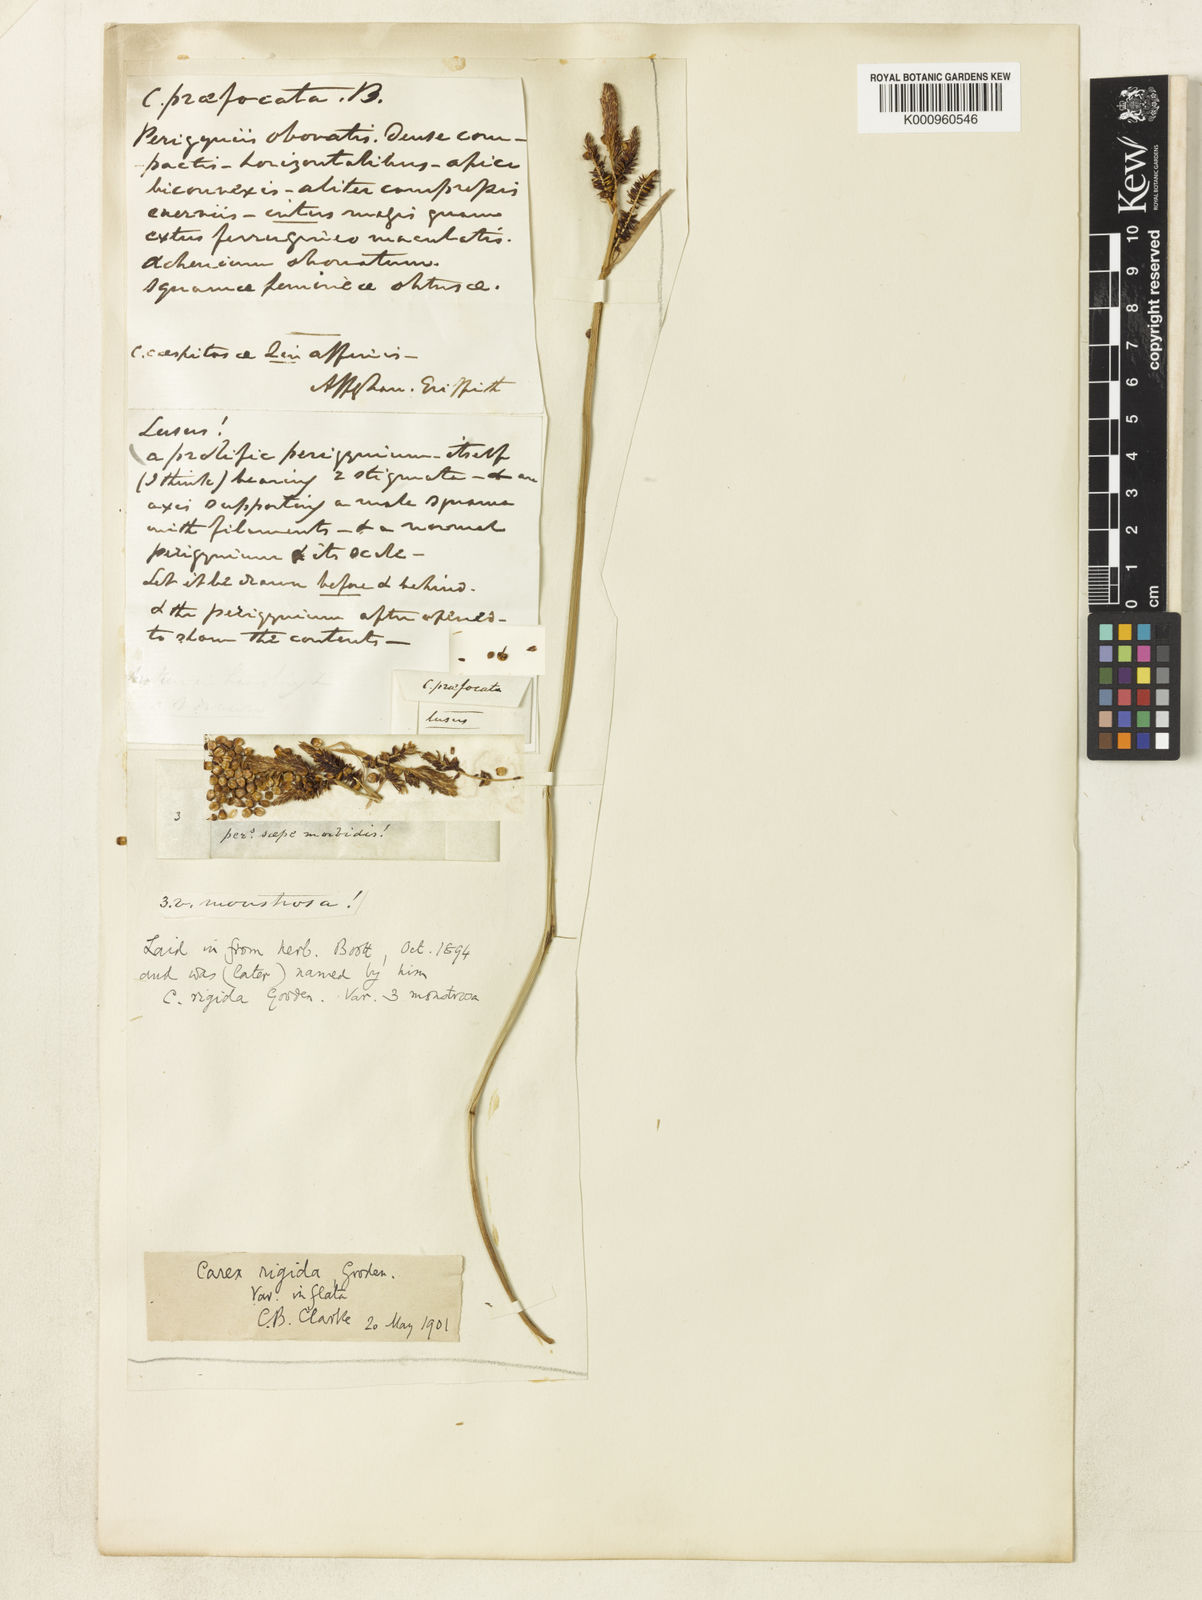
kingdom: Plantae
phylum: Tracheophyta
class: Liliopsida
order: Poales
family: Cyperaceae
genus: Carex
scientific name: Carex dacica
